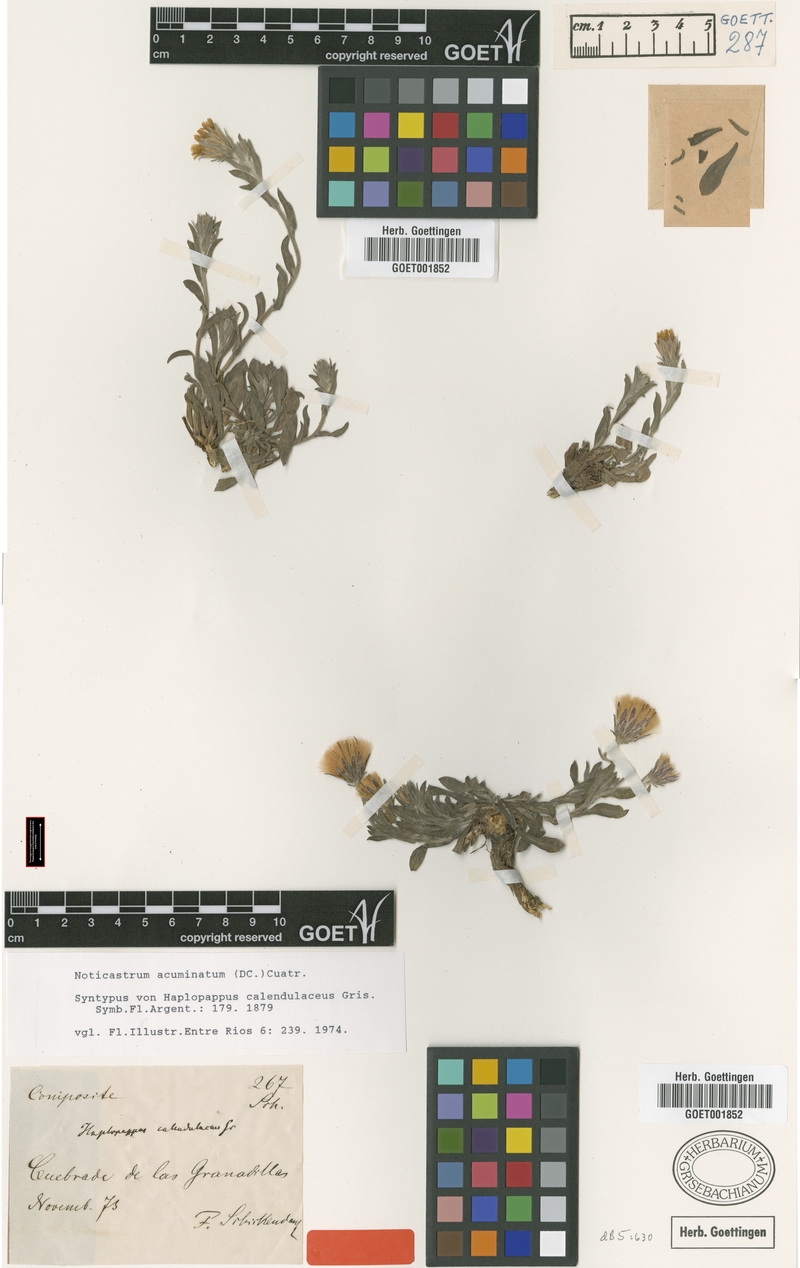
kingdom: Plantae
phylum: Tracheophyta
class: Magnoliopsida
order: Asterales
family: Asteraceae
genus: Noticastrum
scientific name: Noticastrum acuminatum
